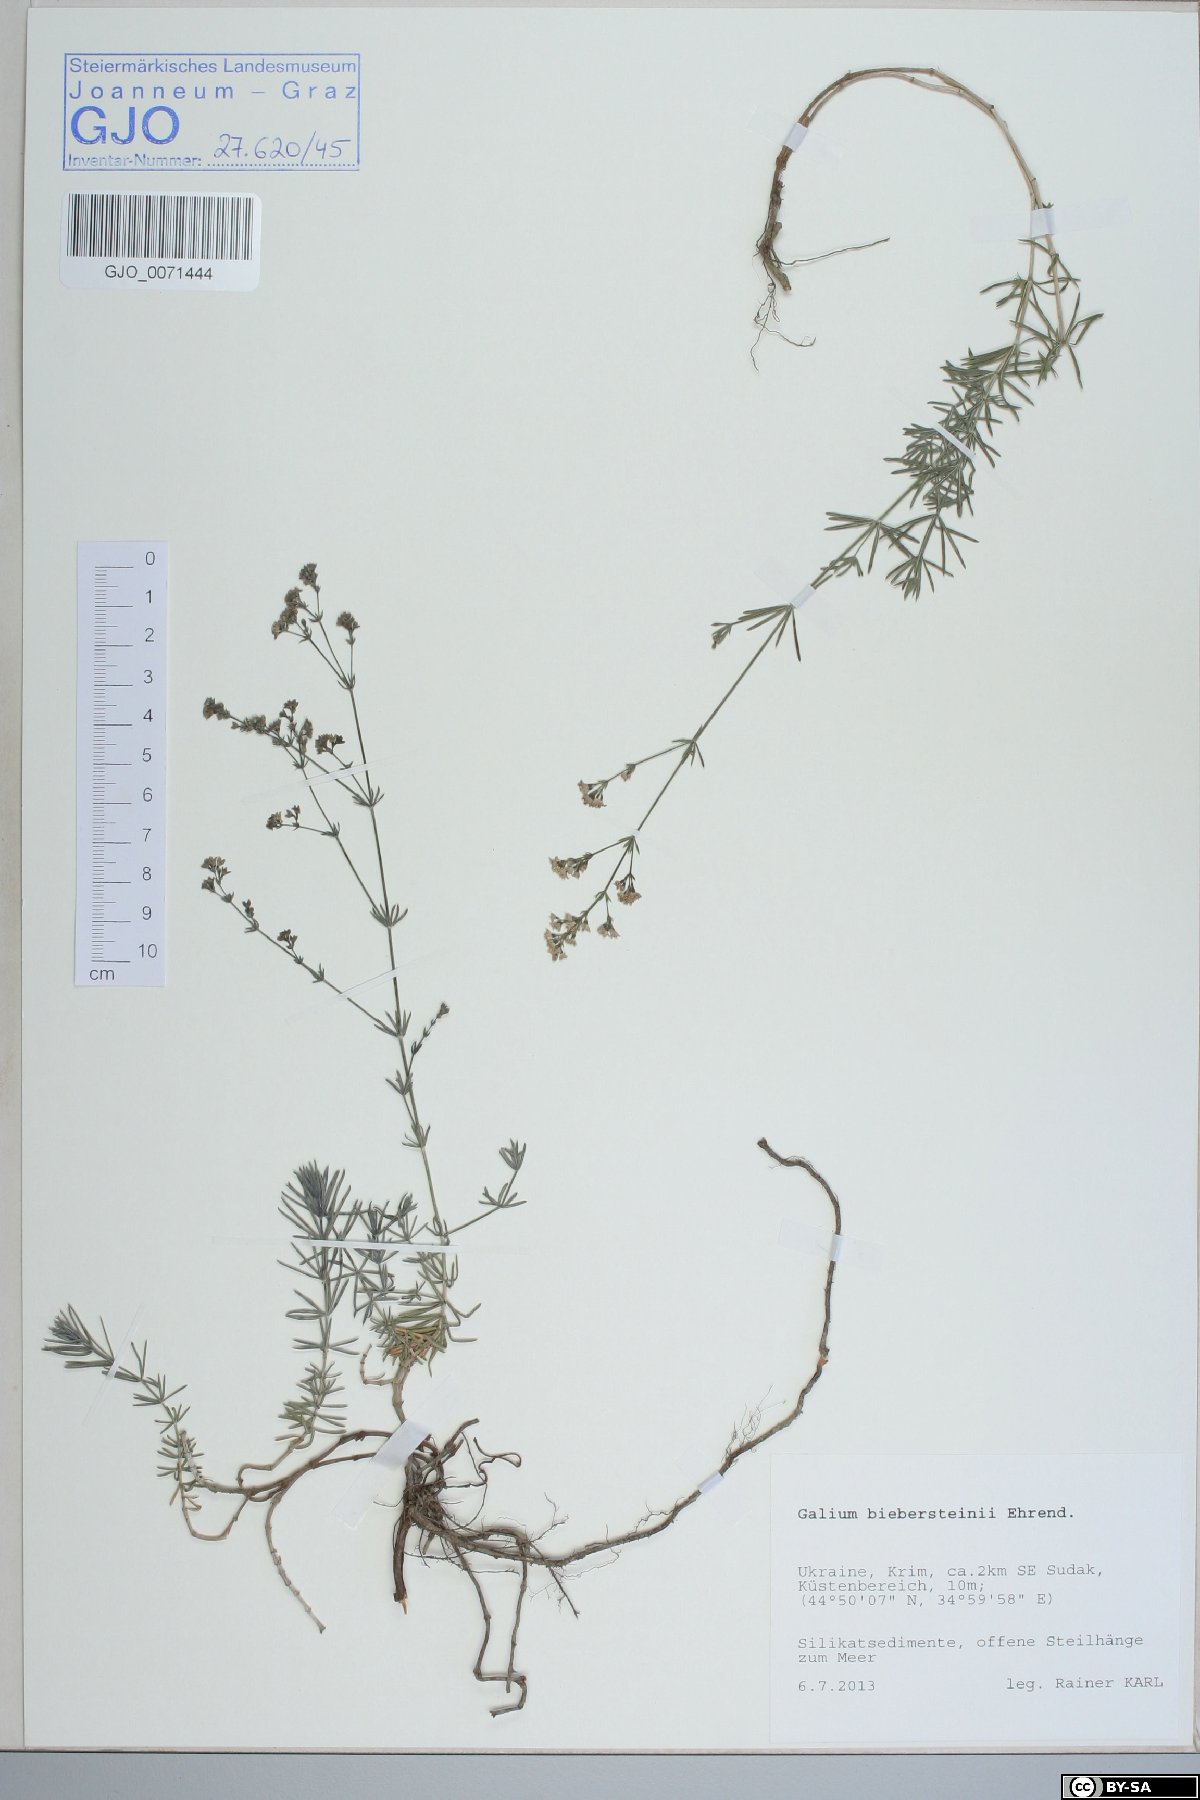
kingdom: Plantae
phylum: Tracheophyta
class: Magnoliopsida
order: Gentianales
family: Rubiaceae
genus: Galium
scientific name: Galium xeroticum
